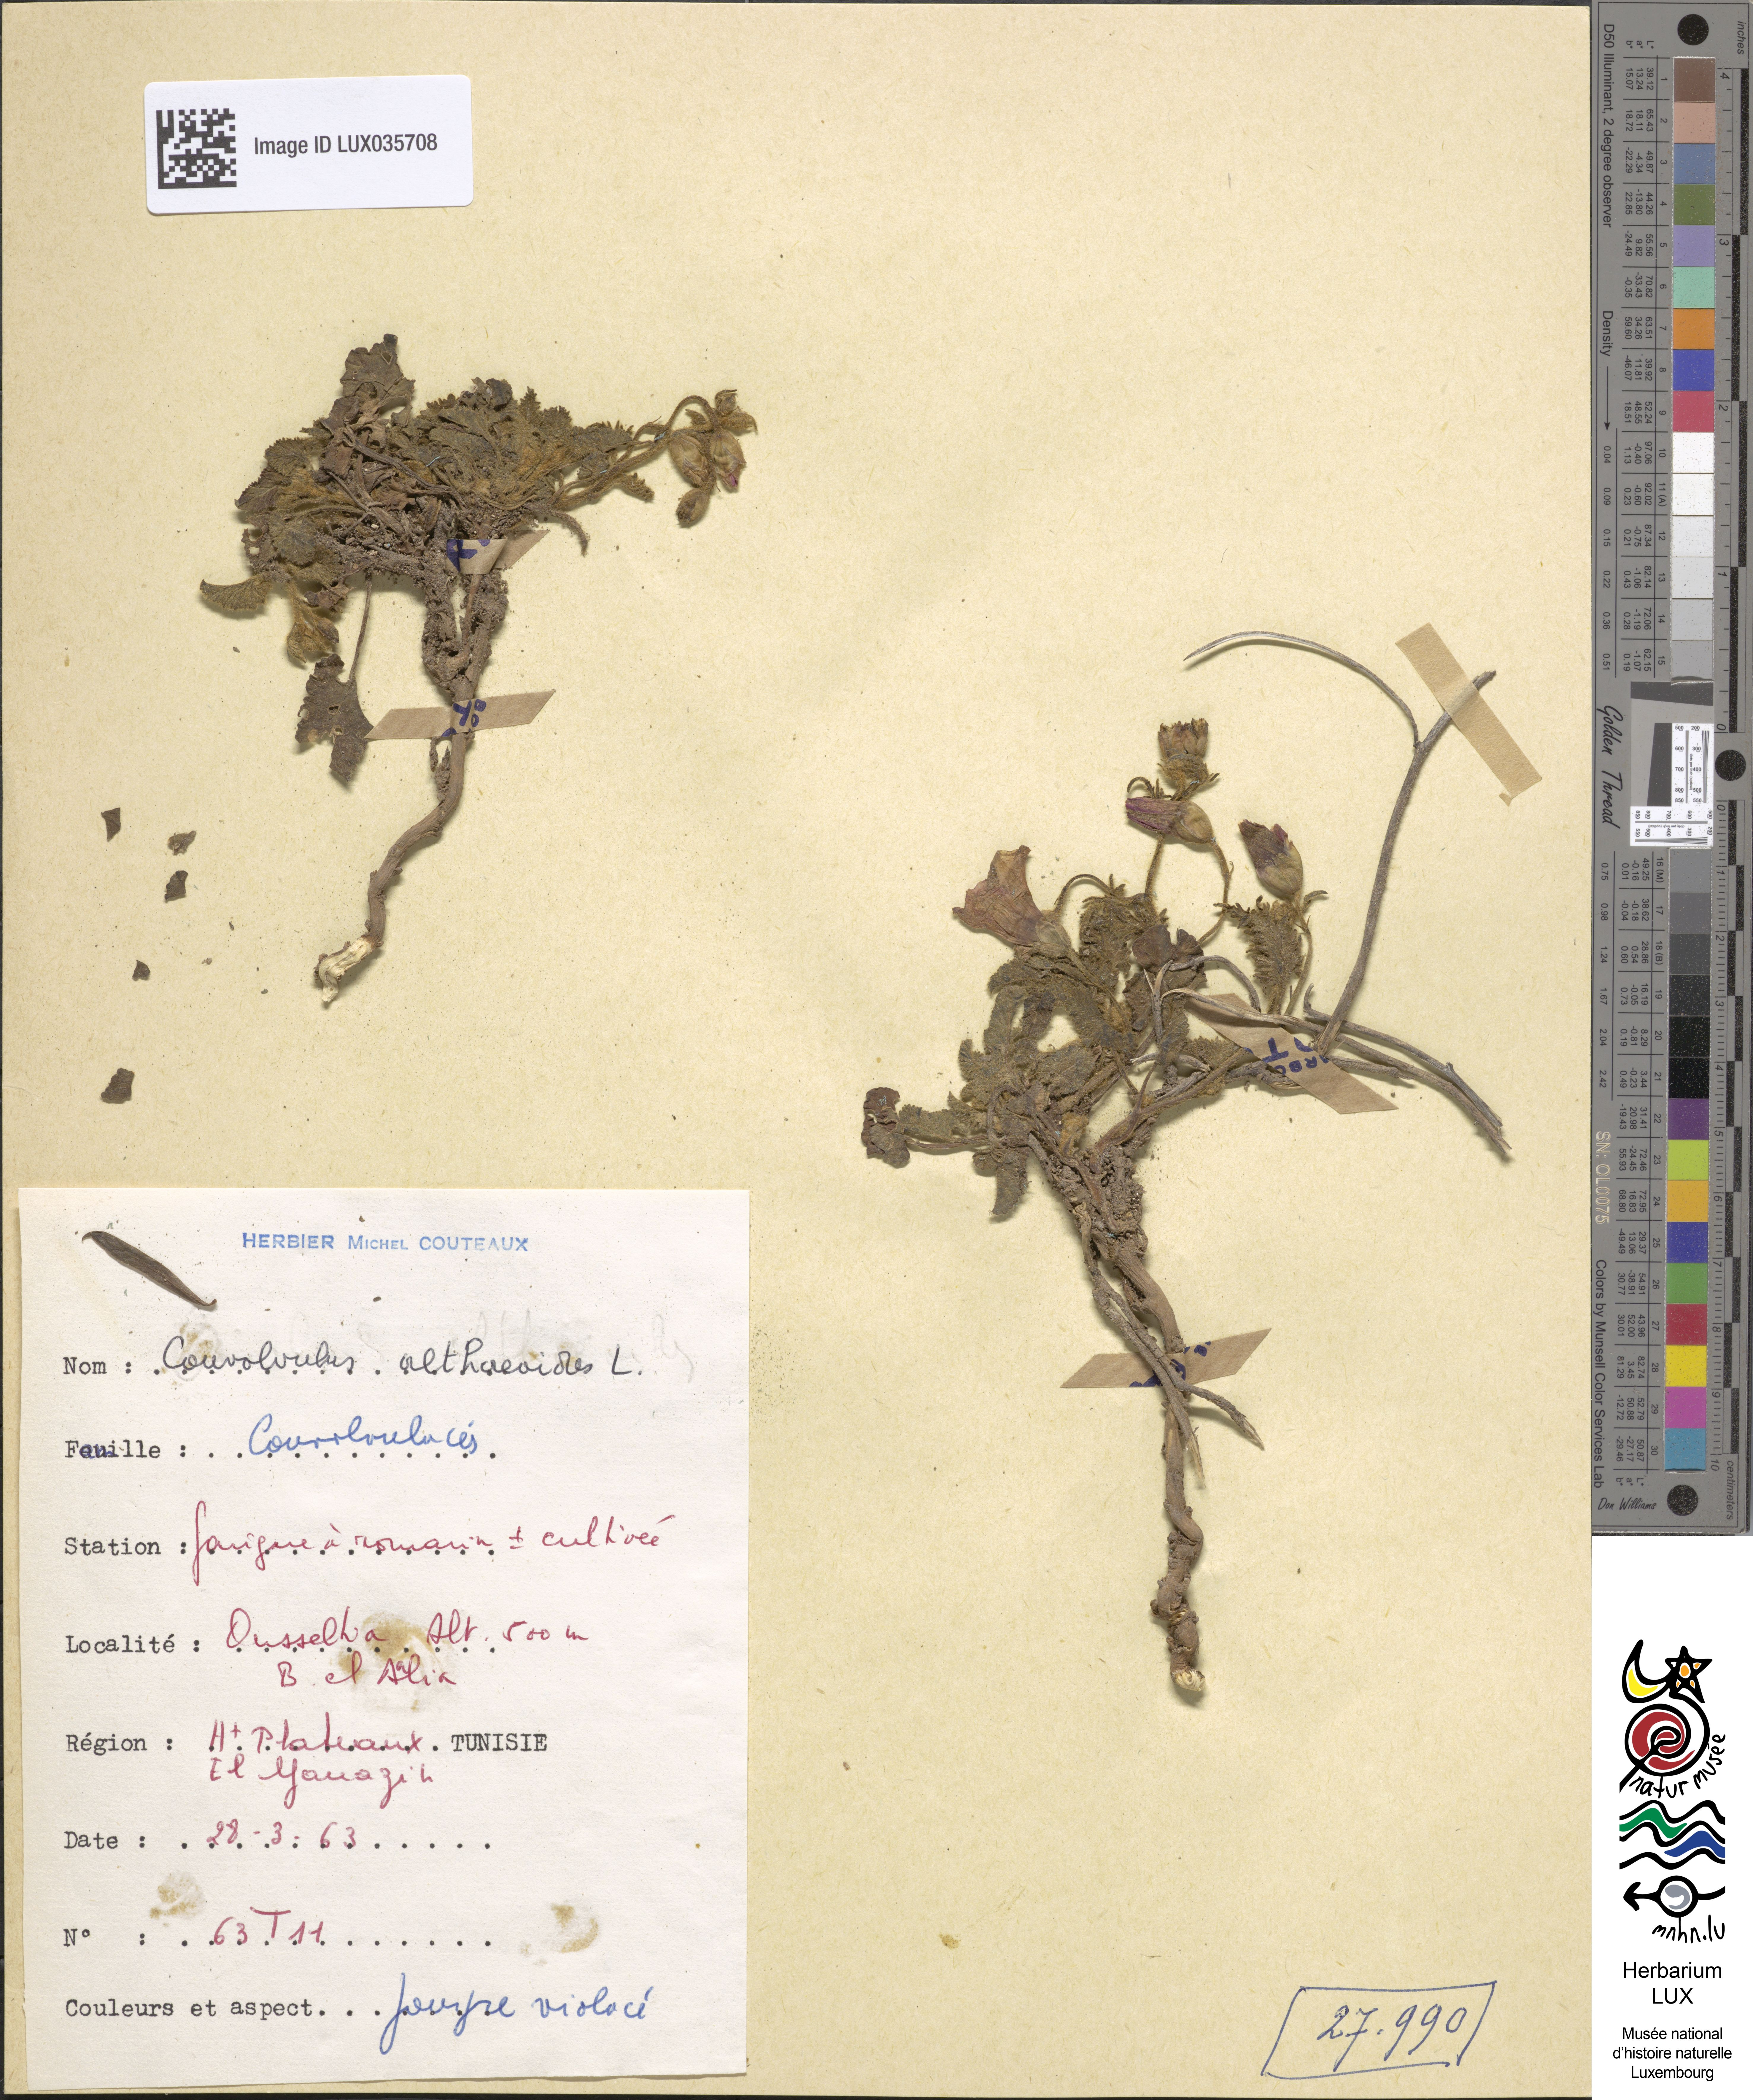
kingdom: Plantae
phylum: Tracheophyta
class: Magnoliopsida
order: Solanales
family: Convolvulaceae
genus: Convolvulus
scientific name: Convolvulus althaeoides
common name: Mallow bindweed
